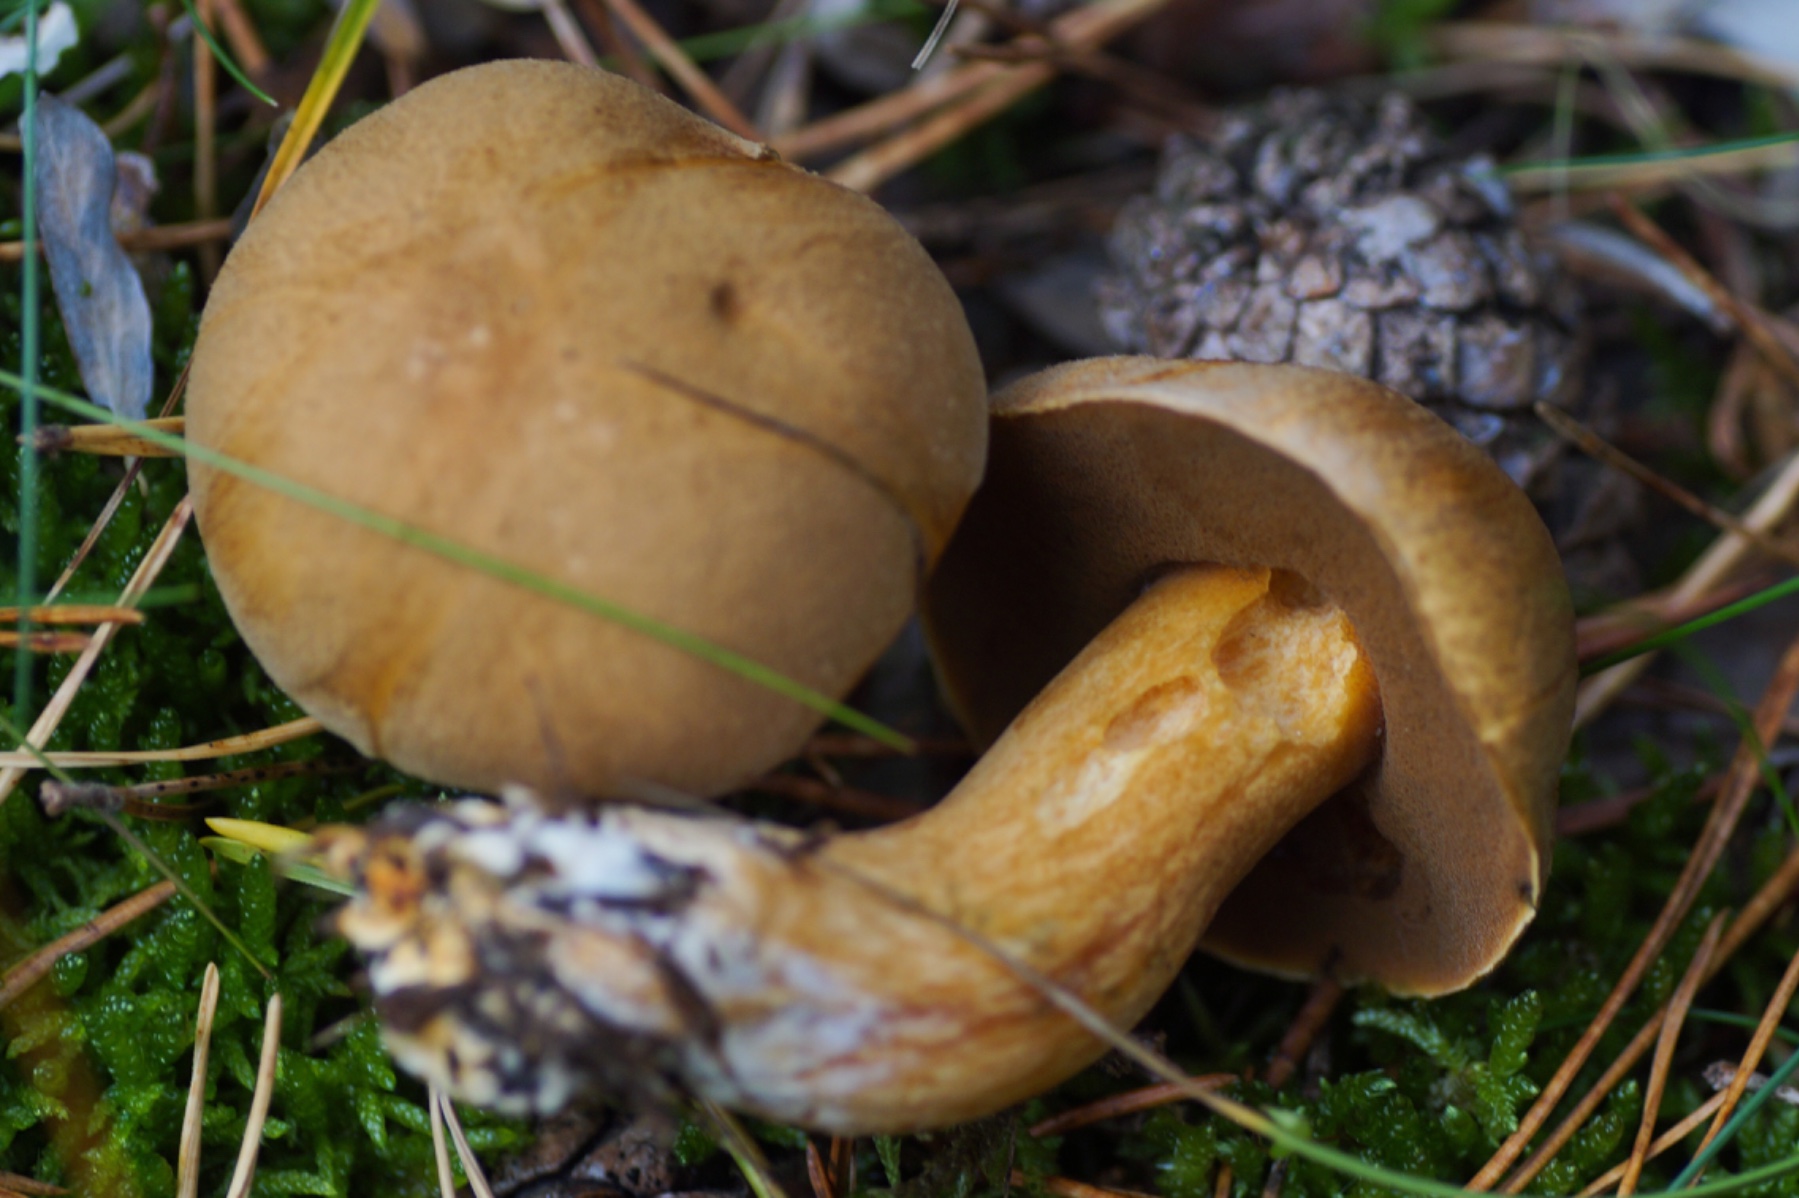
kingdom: Fungi
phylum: Basidiomycota
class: Agaricomycetes
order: Boletales
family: Suillaceae
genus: Suillus
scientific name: Suillus variegatus
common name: broget slimrørhat
